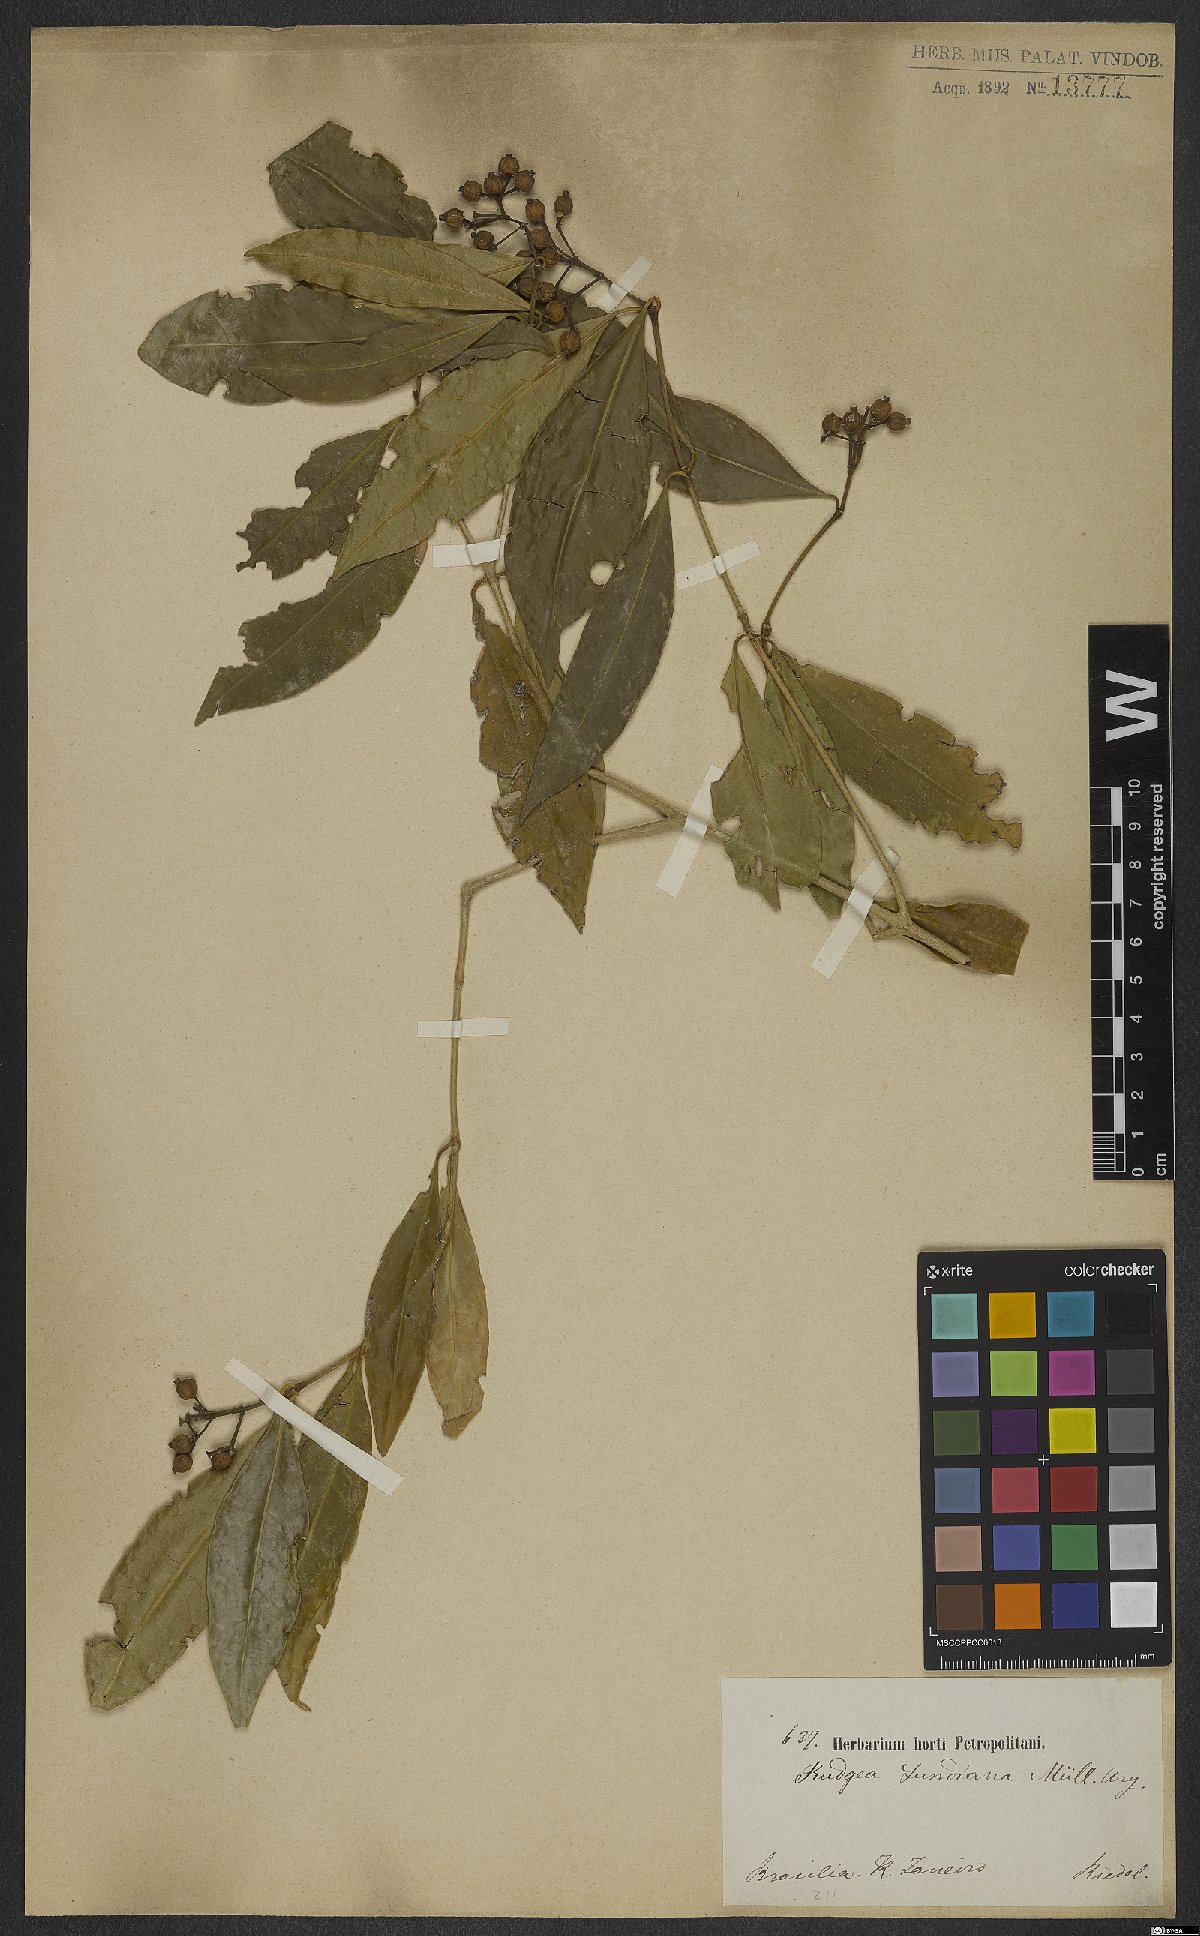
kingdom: Plantae
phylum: Tracheophyta
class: Magnoliopsida
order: Gentianales
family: Rubiaceae
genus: Rudgea
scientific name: Rudgea coronata
